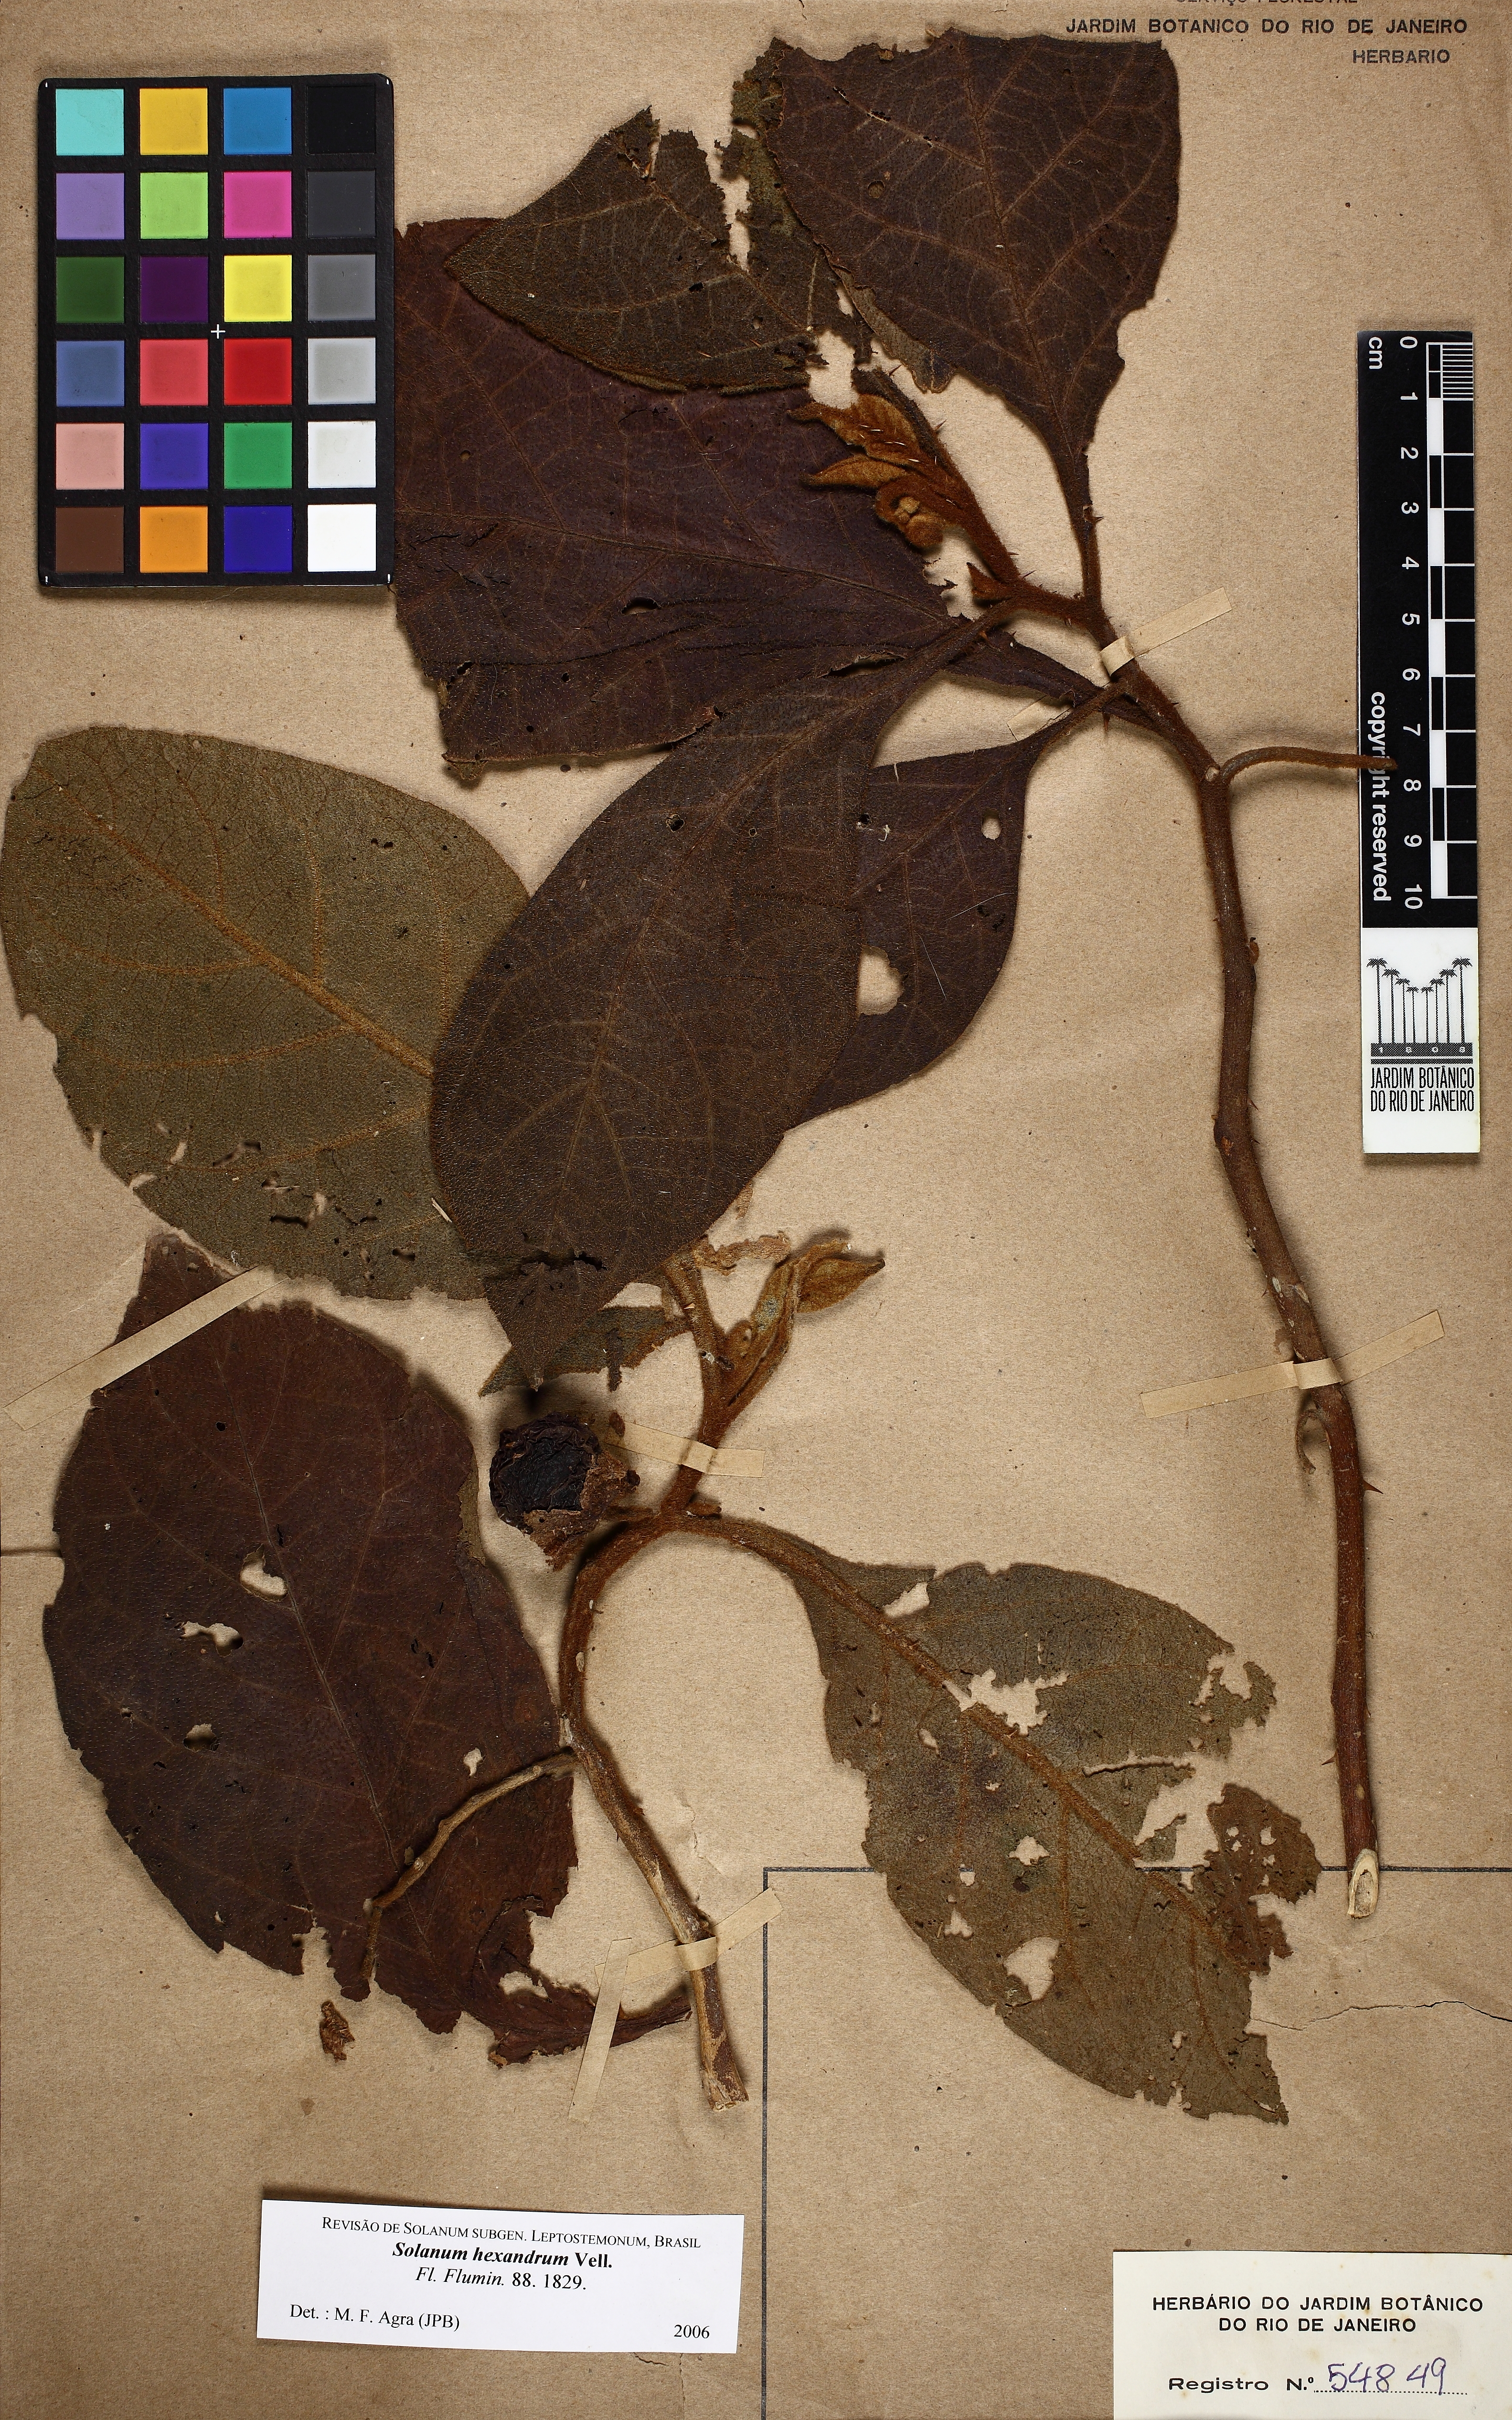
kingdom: Plantae
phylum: Tracheophyta
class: Magnoliopsida
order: Solanales
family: Solanaceae
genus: Solanum
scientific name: Solanum hexandrum
